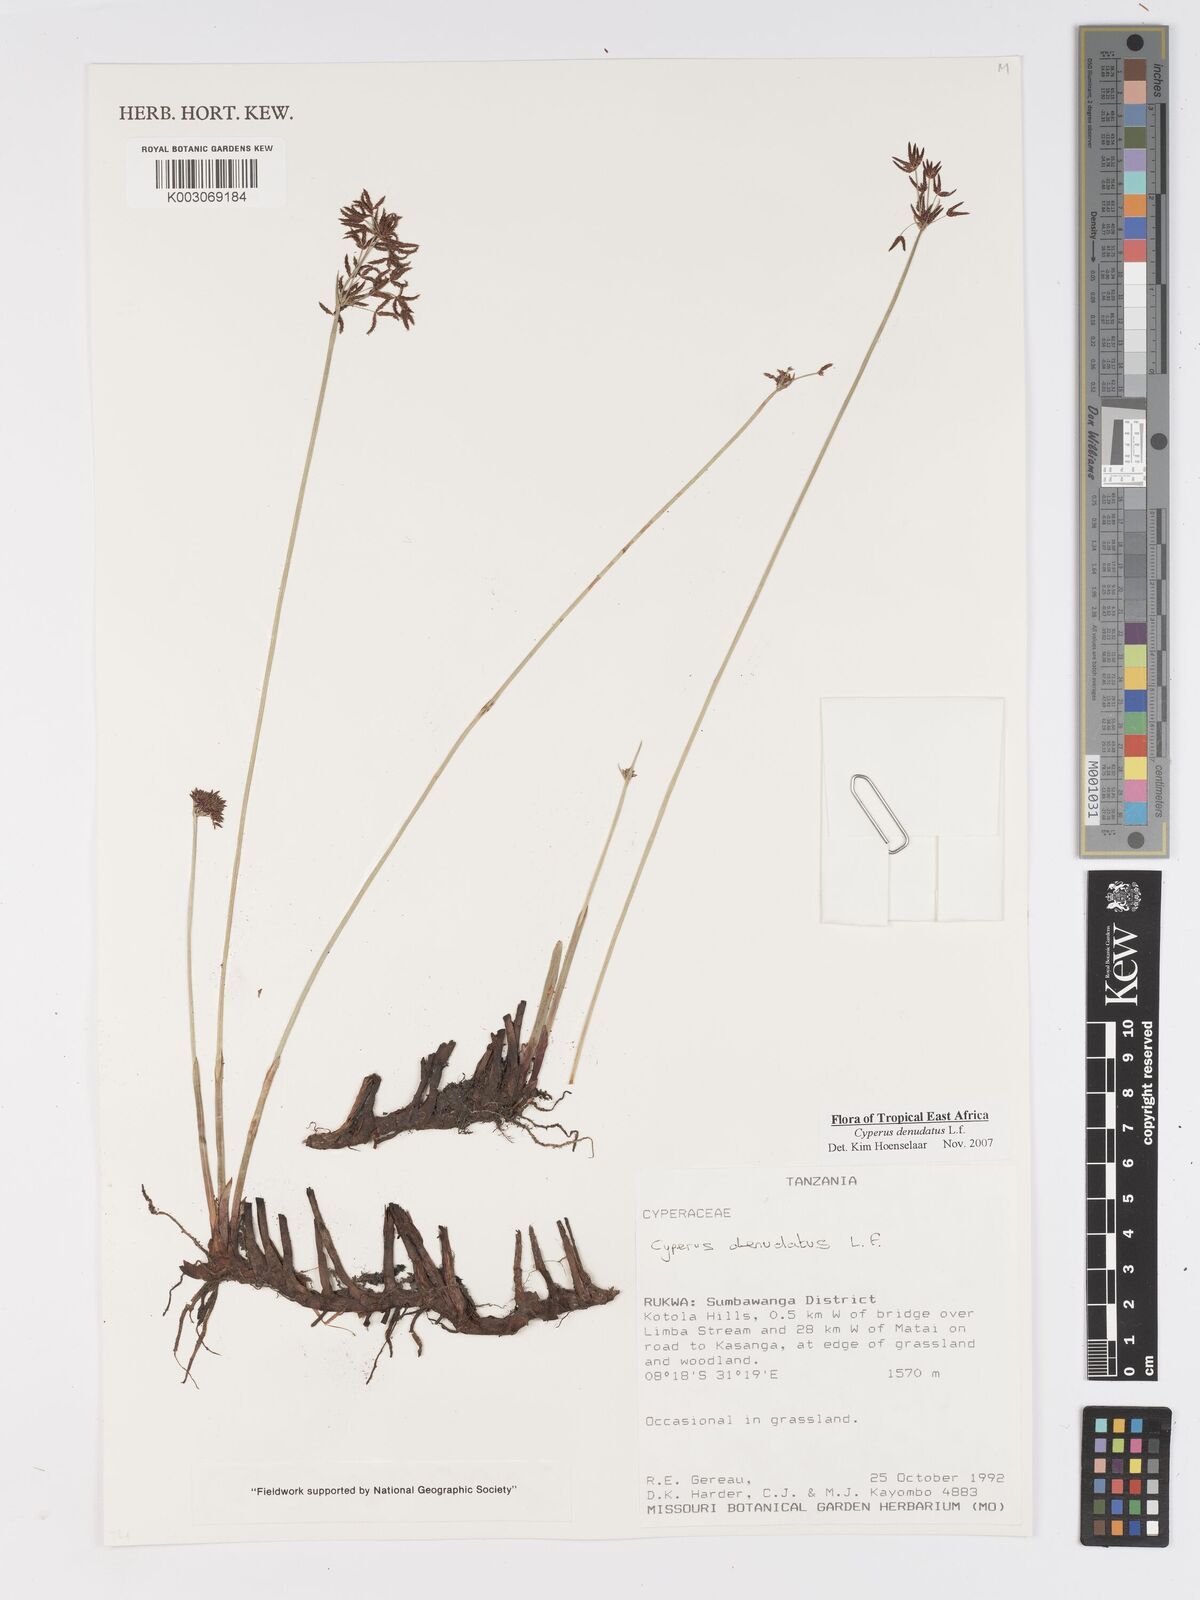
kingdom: Plantae
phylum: Tracheophyta
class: Liliopsida
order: Poales
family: Cyperaceae
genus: Cyperus
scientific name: Cyperus denudatus
